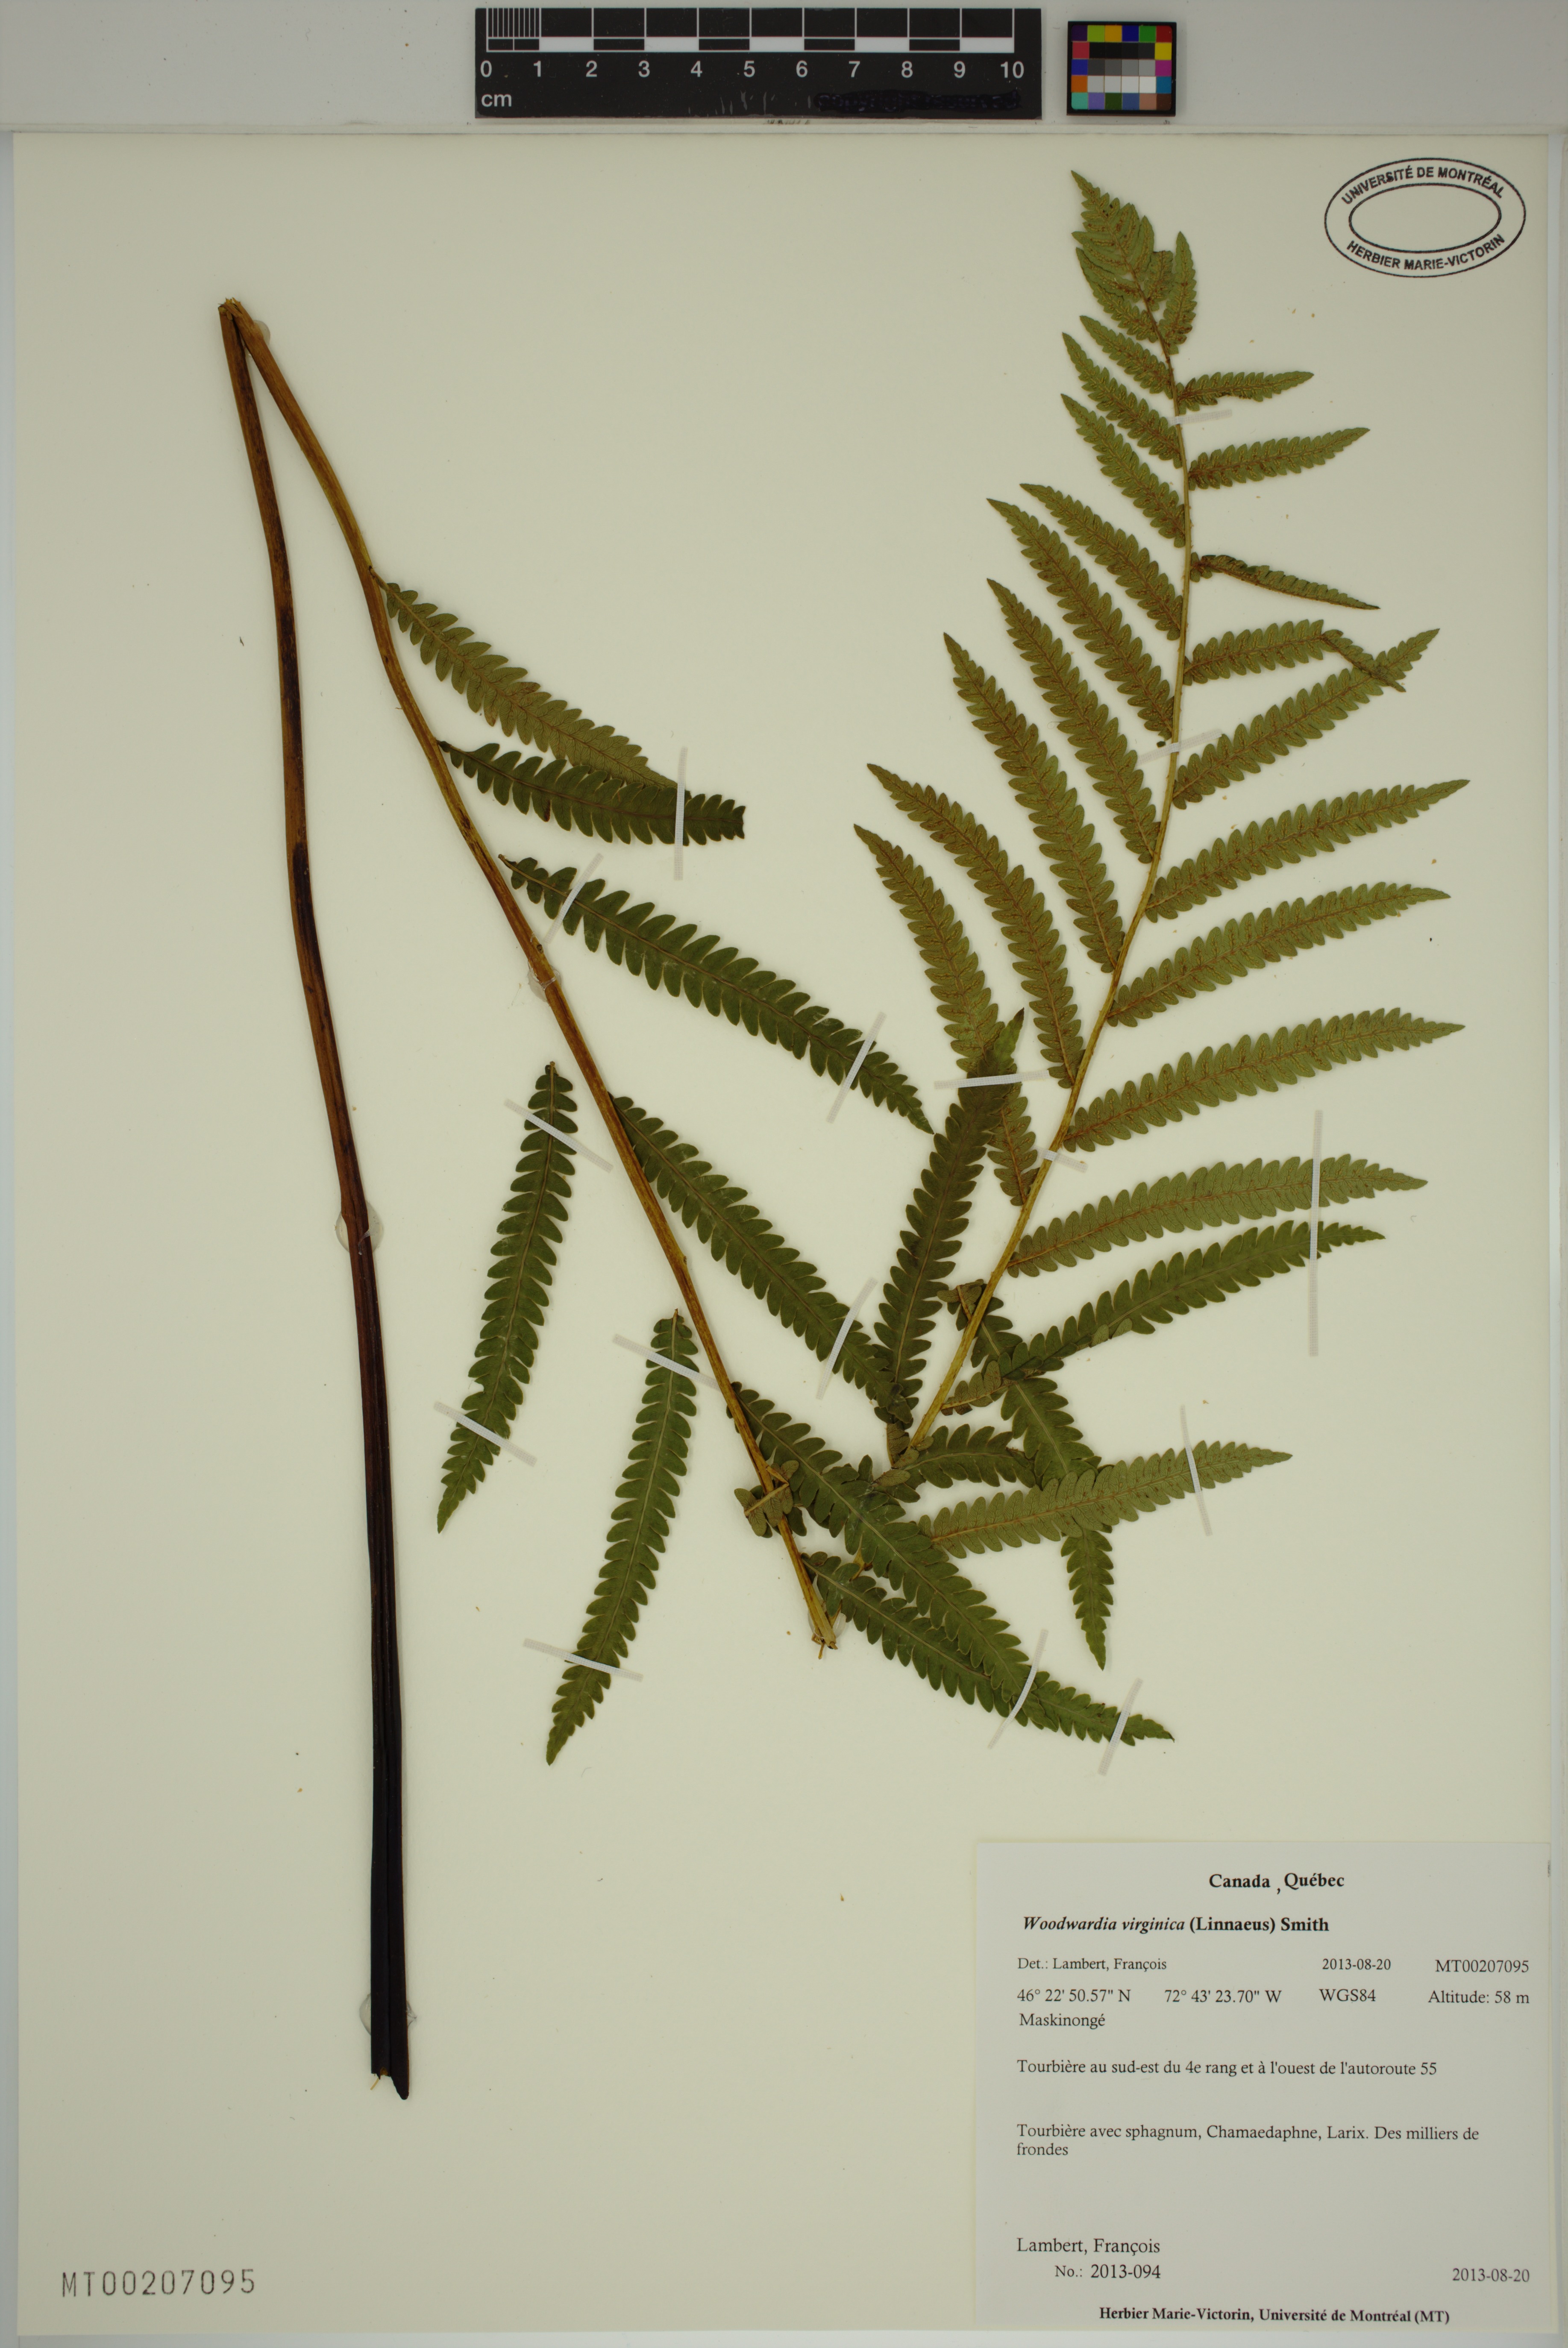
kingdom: Plantae
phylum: Tracheophyta
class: Polypodiopsida
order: Polypodiales
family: Blechnaceae
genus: Anchistea
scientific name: Anchistea virginica
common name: Virginia chain fern
